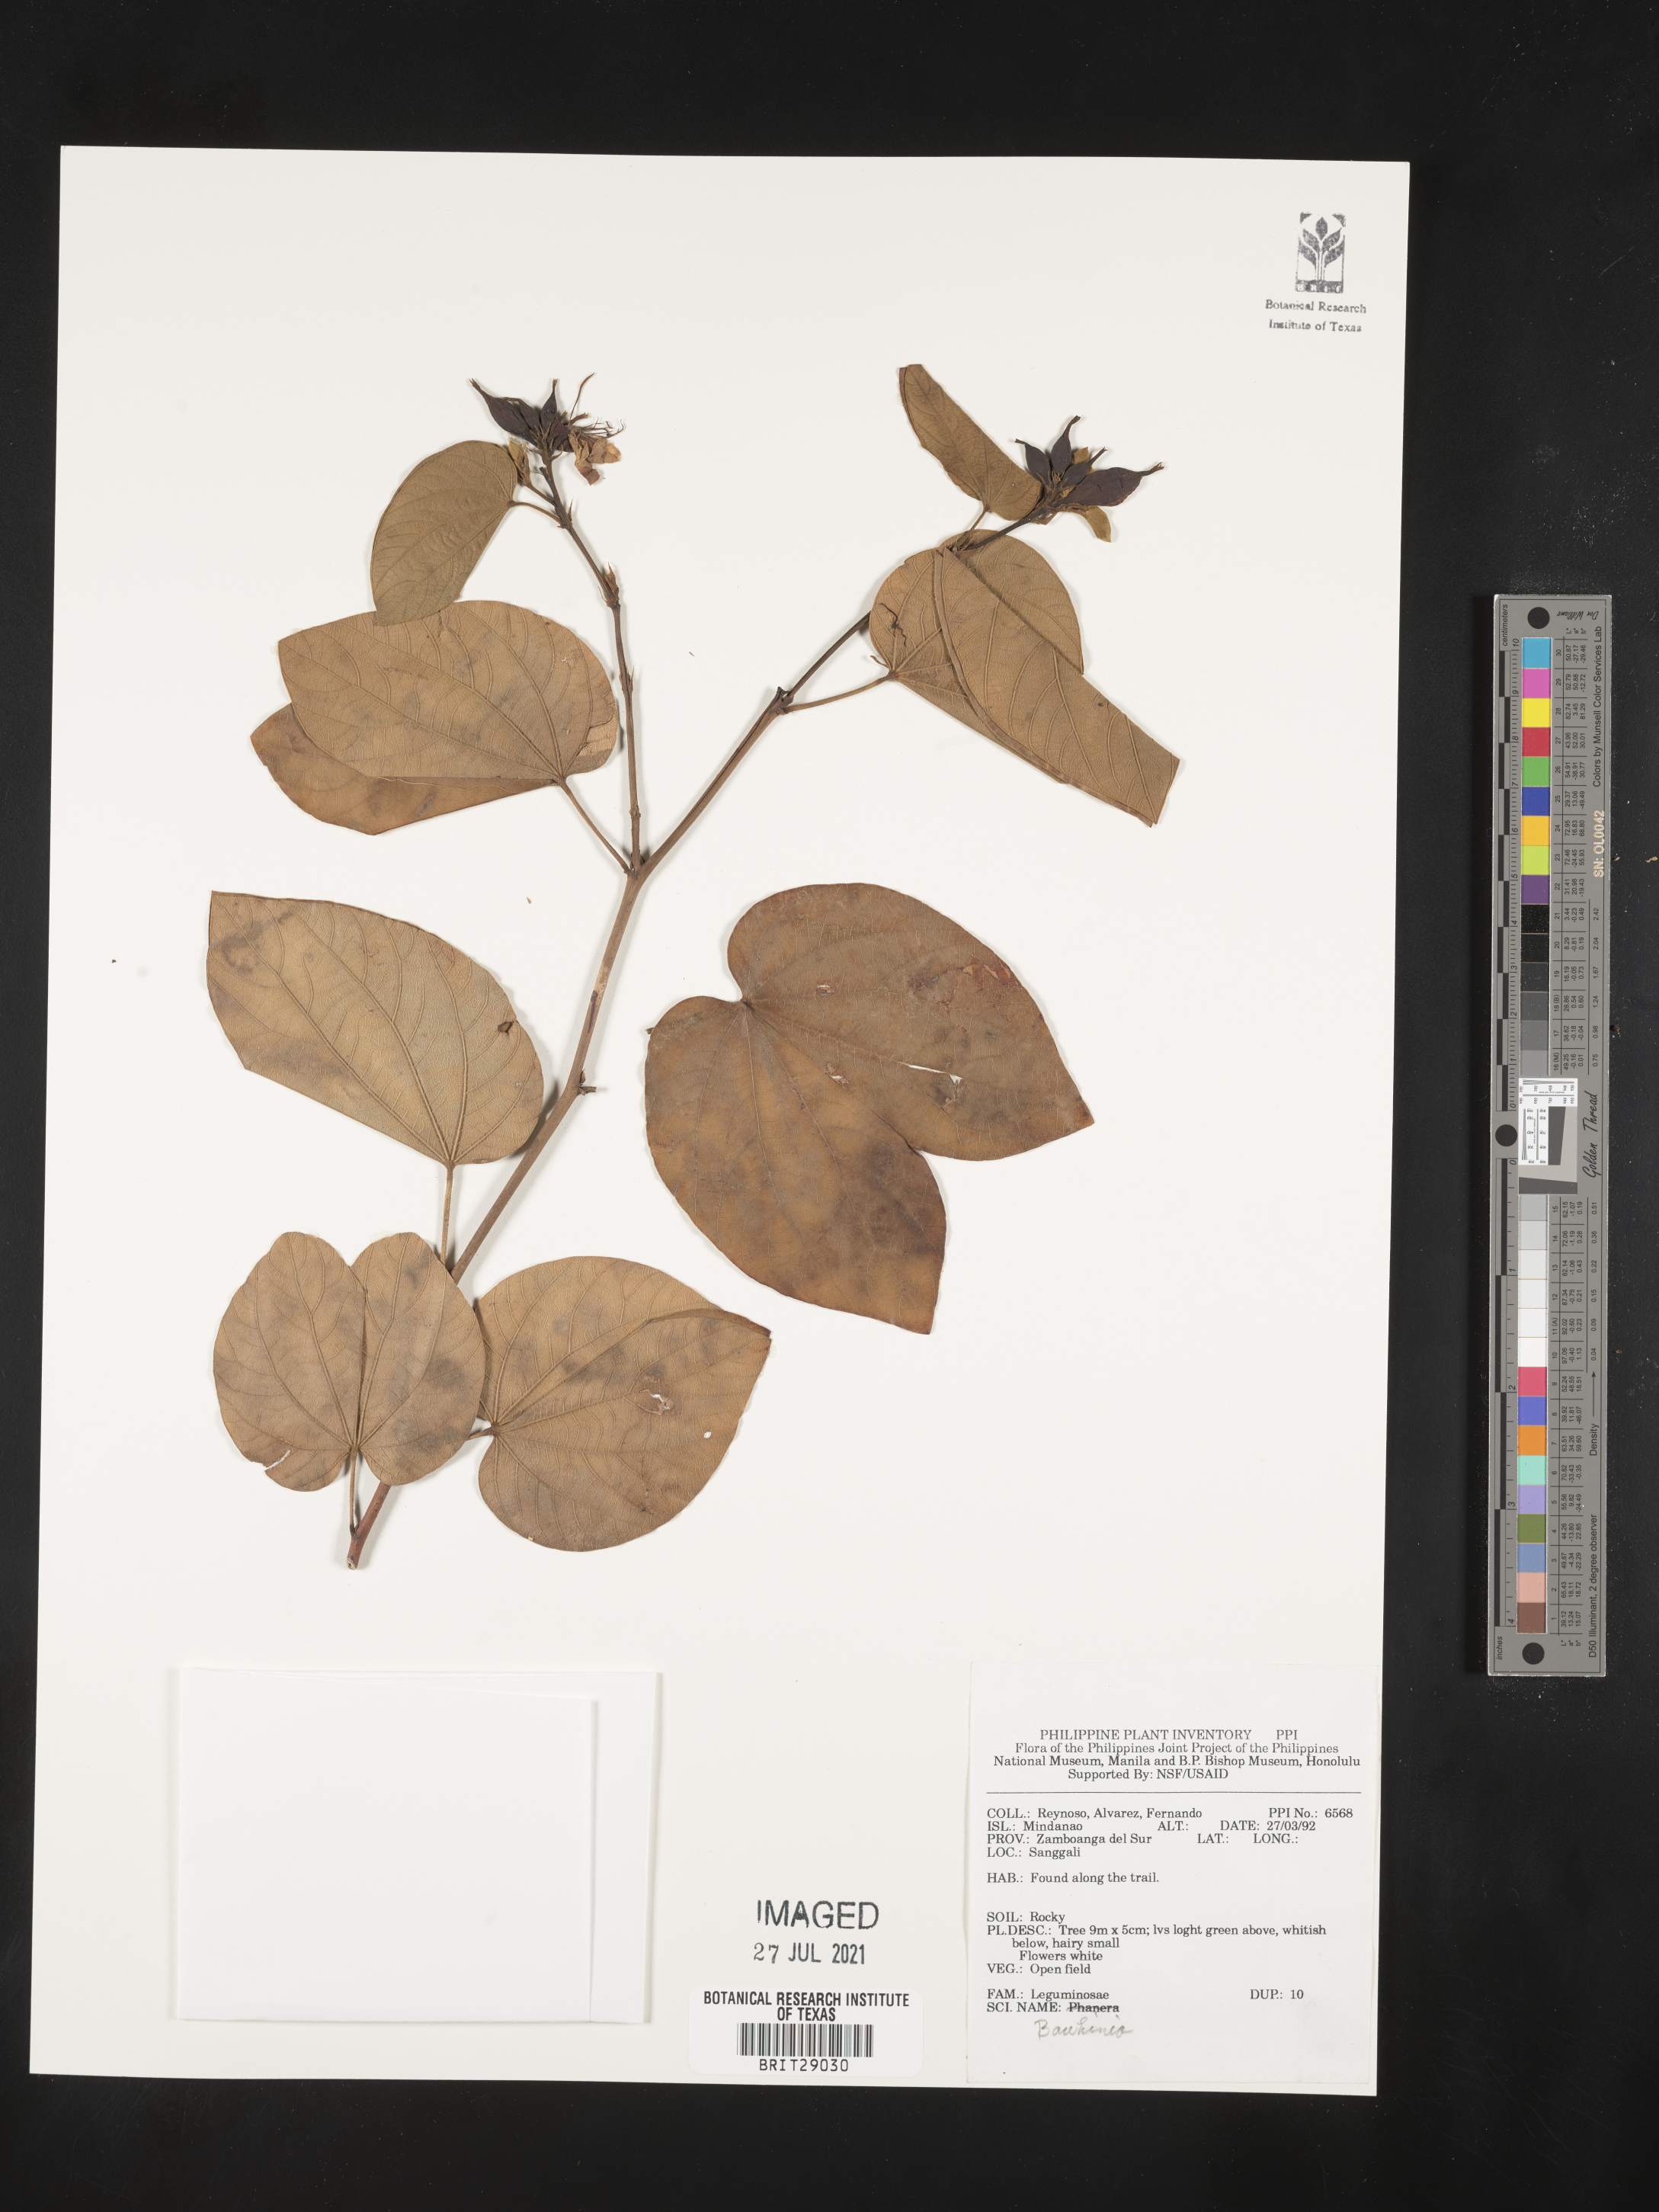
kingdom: Plantae
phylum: Tracheophyta
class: Magnoliopsida
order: Fabales
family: Fabaceae
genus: Bauhinia
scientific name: Bauhinia
